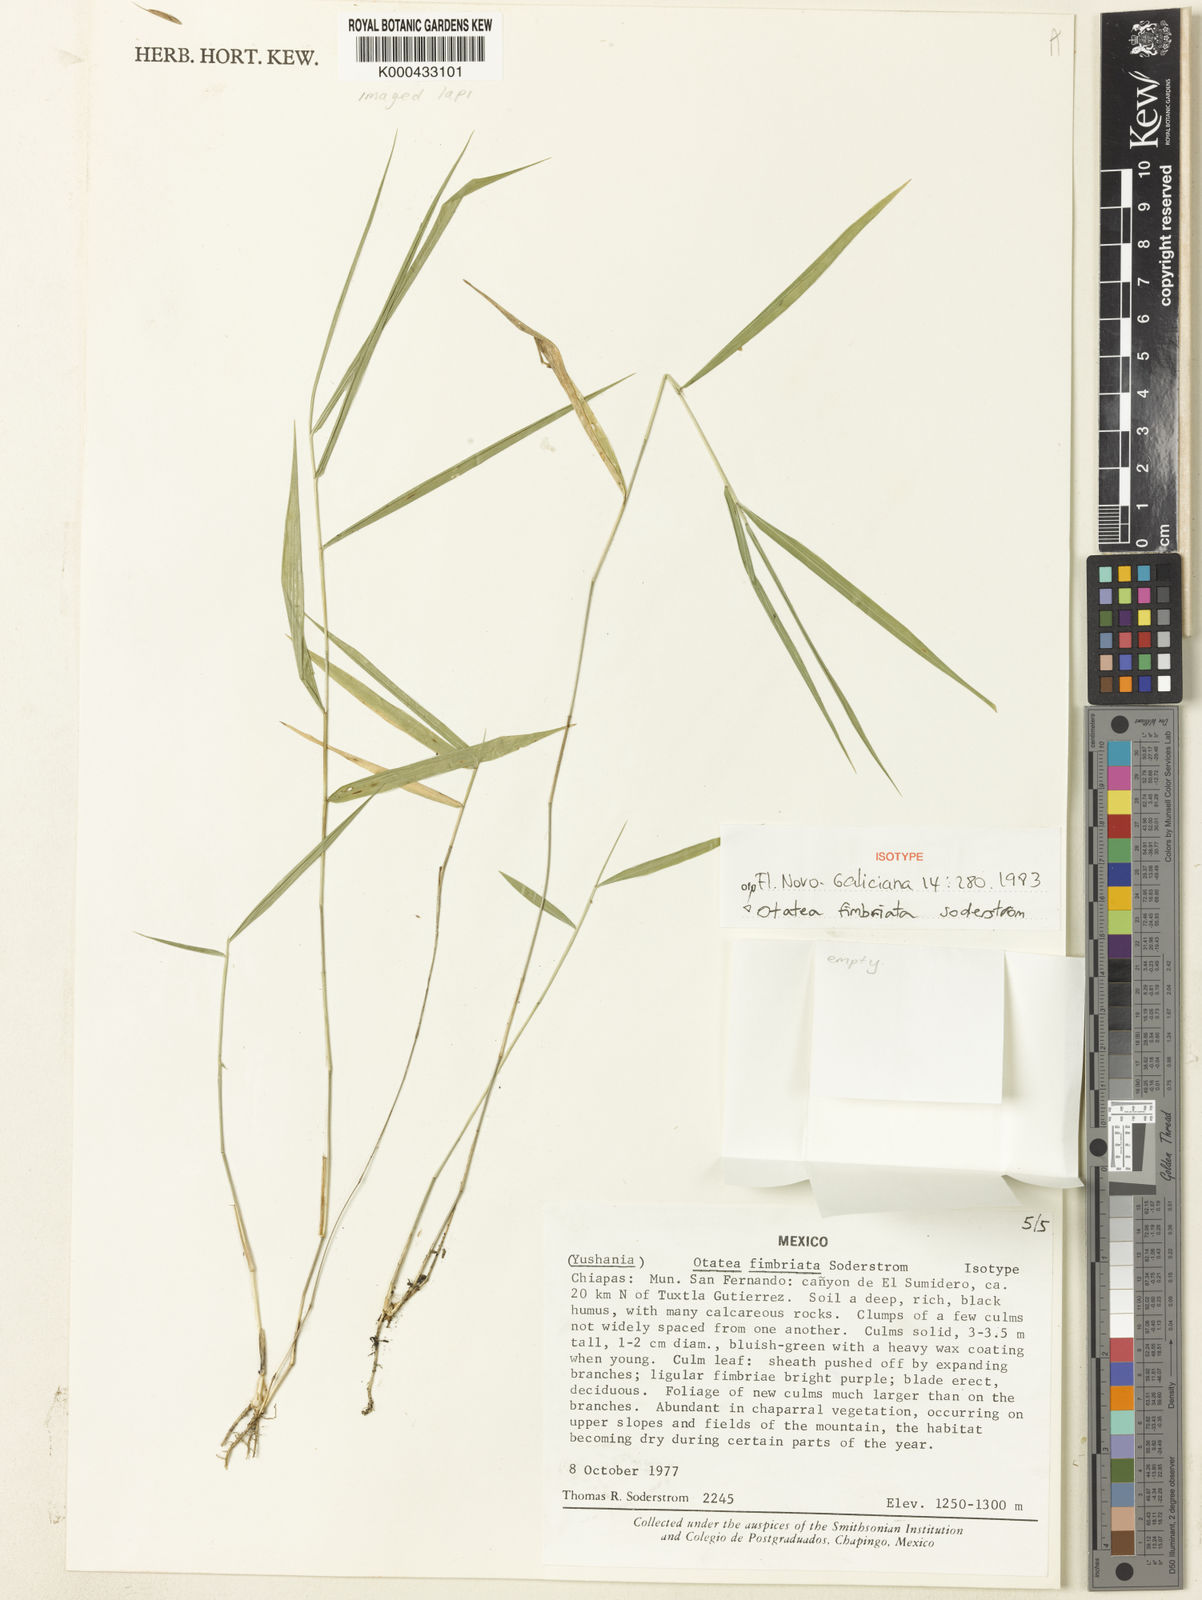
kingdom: Plantae
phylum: Tracheophyta
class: Liliopsida
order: Poales
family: Poaceae
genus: Otatea
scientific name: Otatea fimbriata
